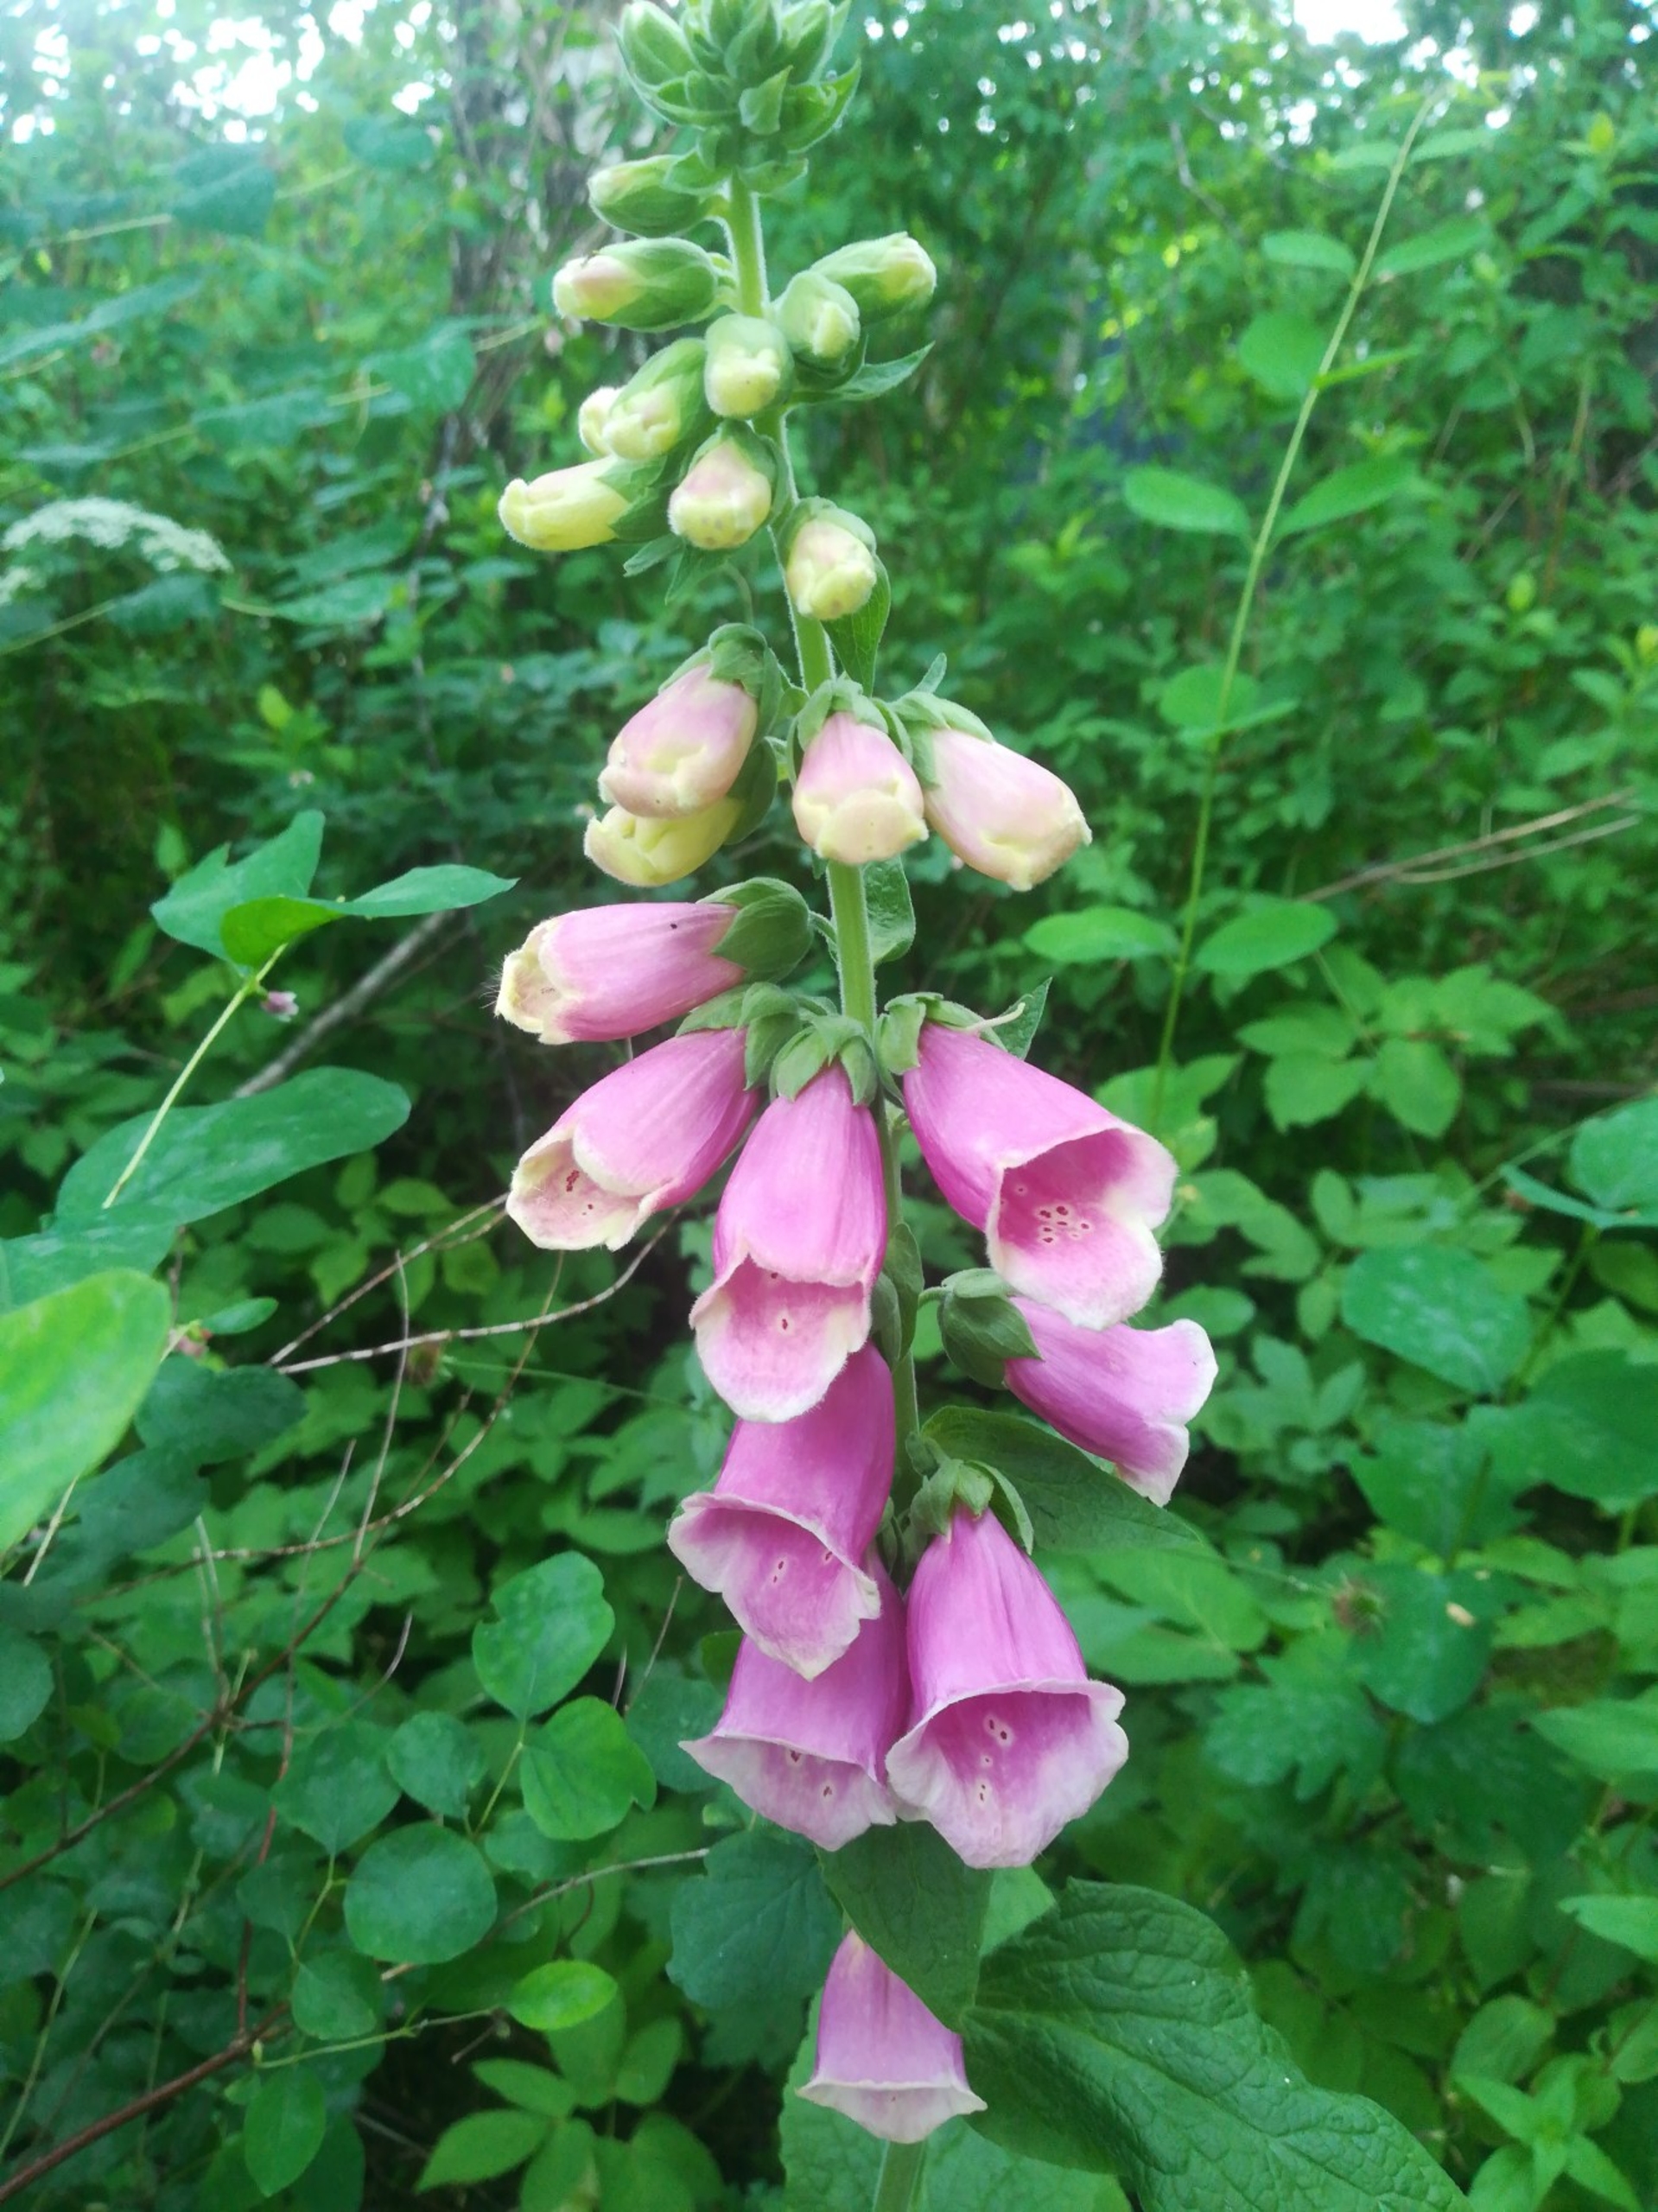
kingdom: Plantae
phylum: Tracheophyta
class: Magnoliopsida
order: Lamiales
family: Plantaginaceae
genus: Digitalis
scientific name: Digitalis purpurea
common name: Almindelig fingerbøl
